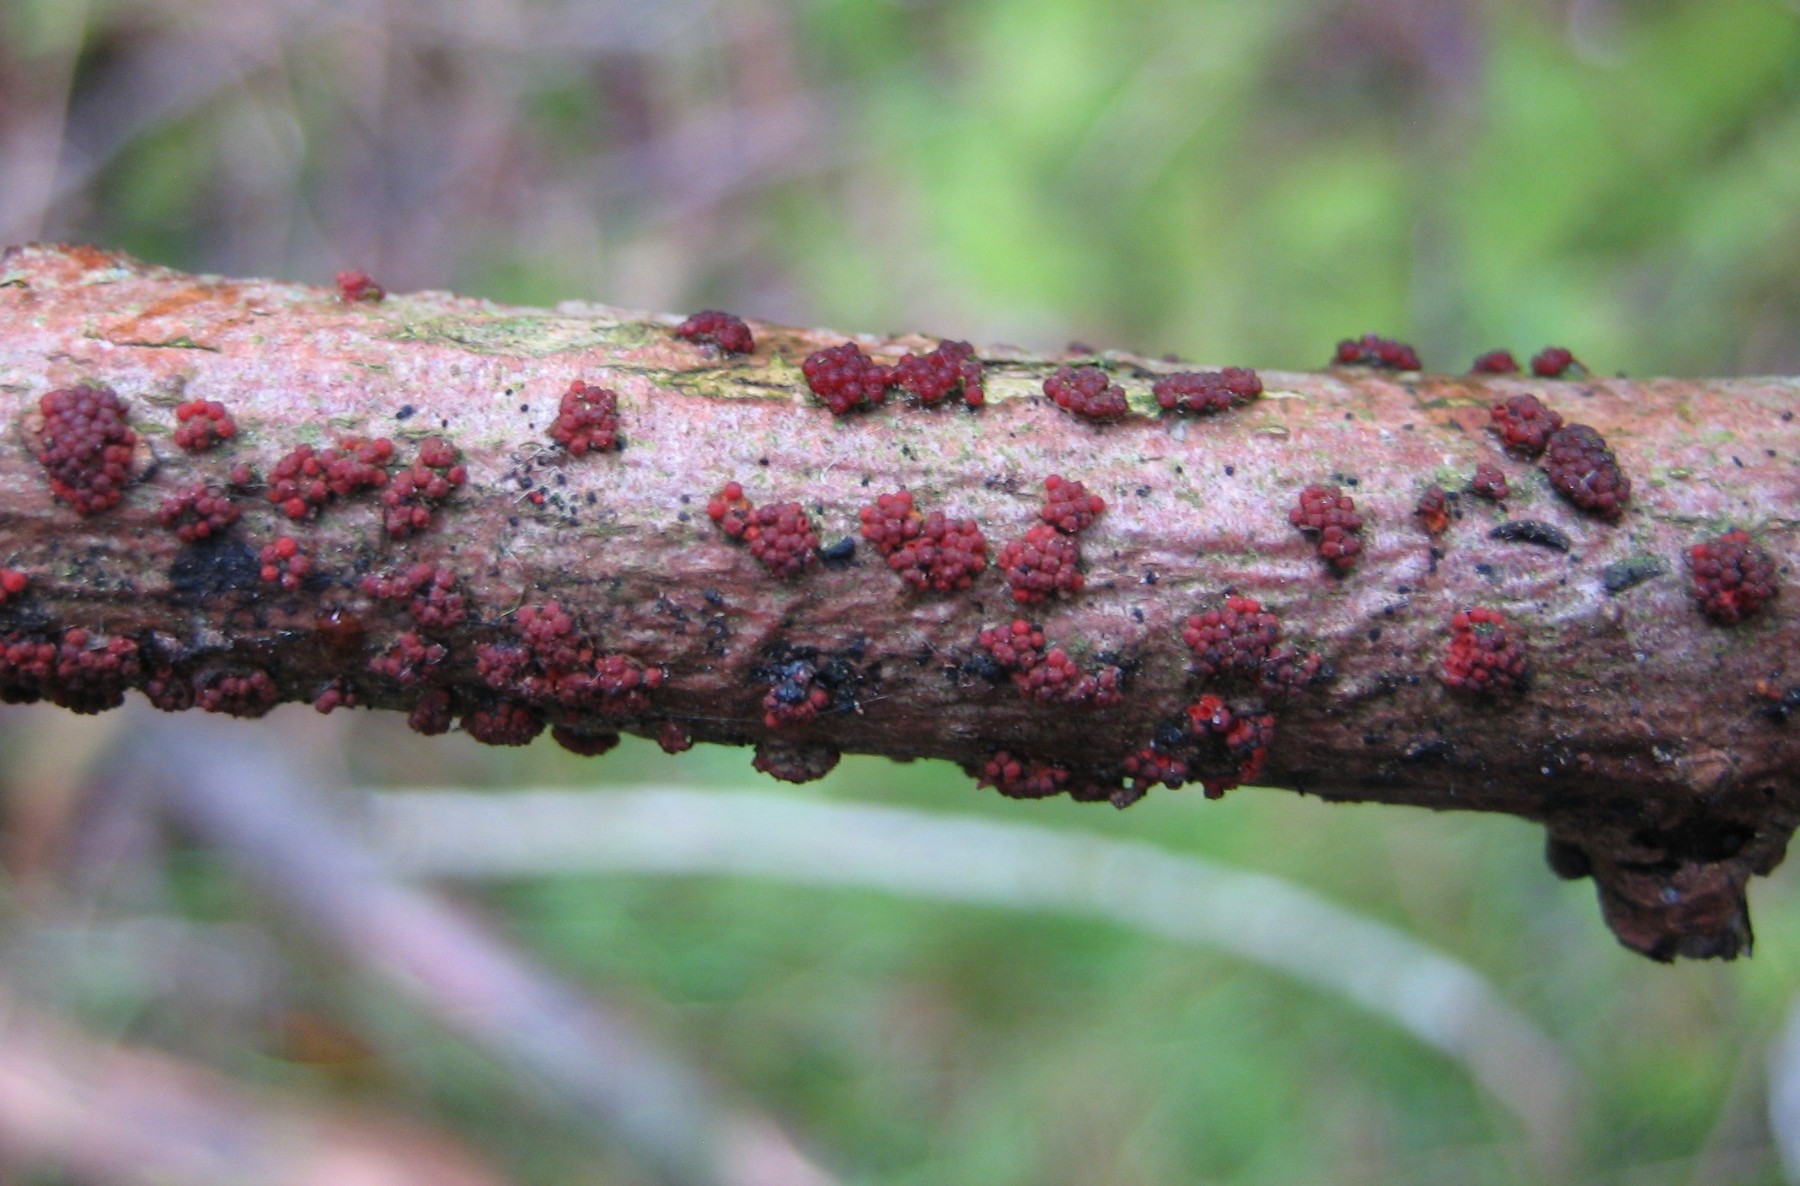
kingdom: Fungi
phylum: Ascomycota
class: Sordariomycetes
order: Hypocreales
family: Nectriaceae
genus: Nectria
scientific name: Nectria cinnabarina
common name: almindelig cinnobersvamp
